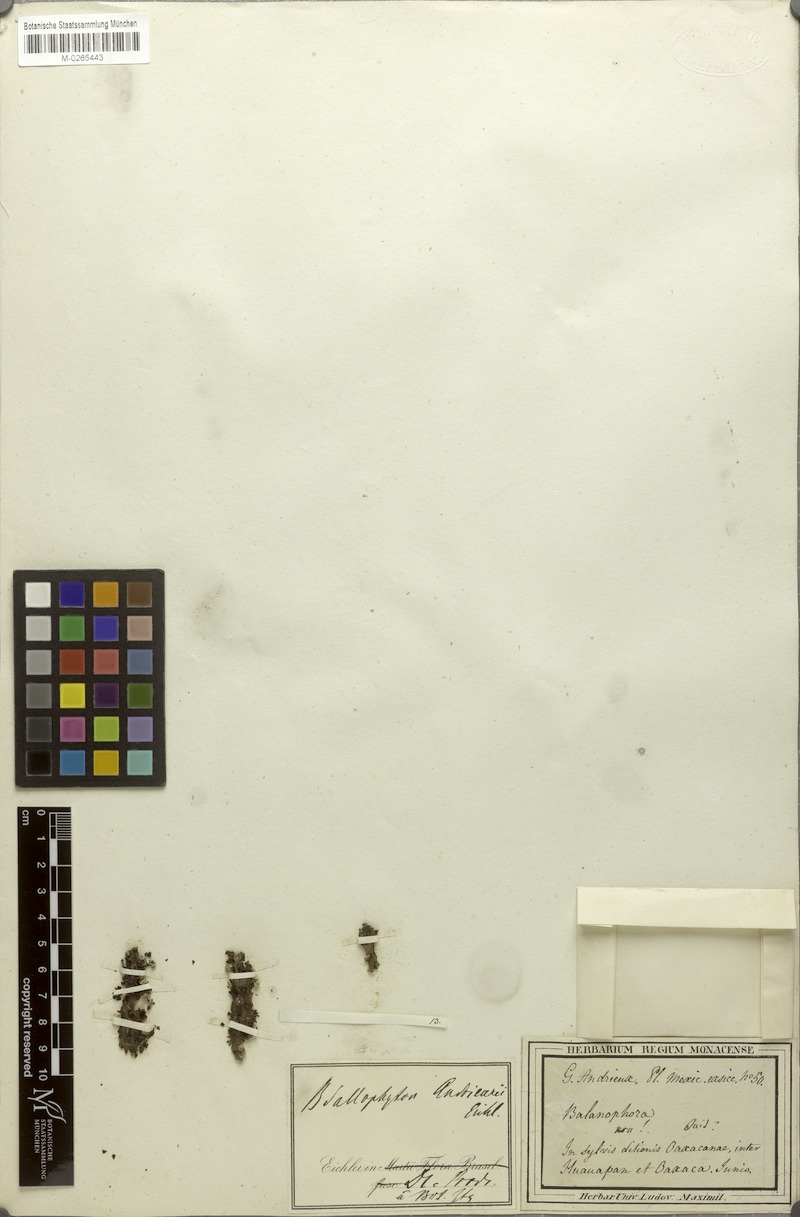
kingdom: Plantae
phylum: Tracheophyta
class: Magnoliopsida
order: Malvales
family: Cytinaceae
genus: Bdallophyton
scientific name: Bdallophyton andrieuxii
